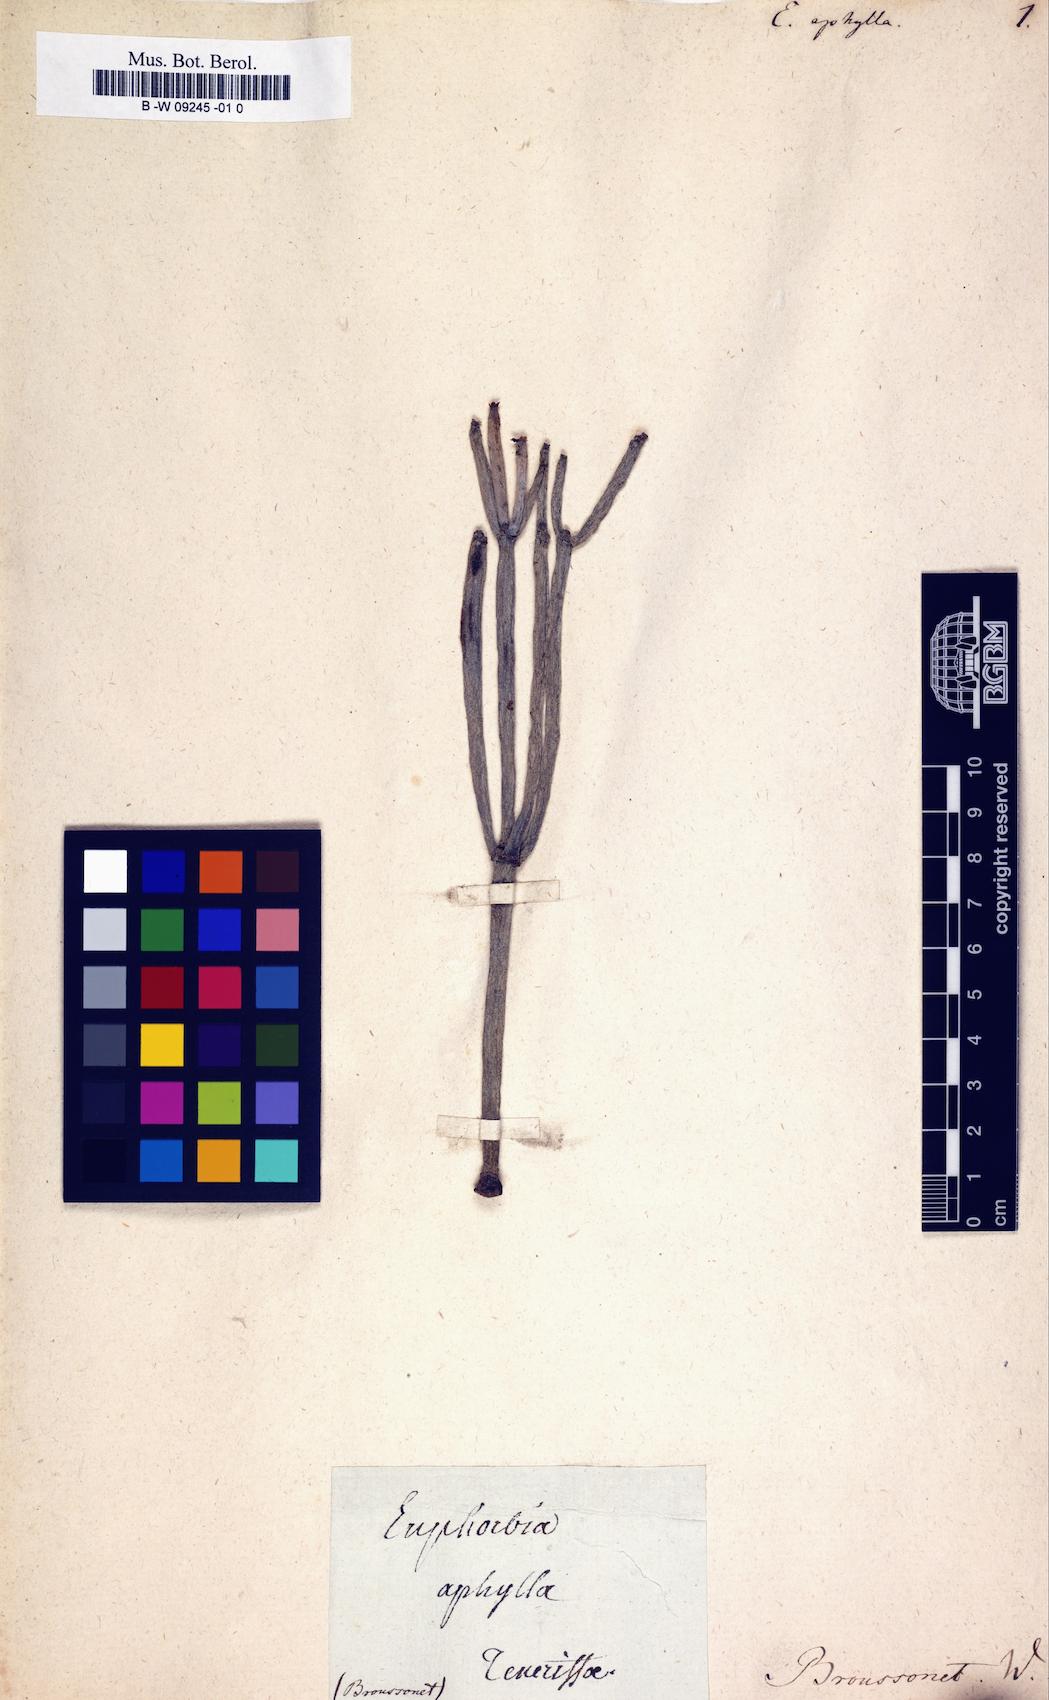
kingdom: Plantae
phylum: Tracheophyta
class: Magnoliopsida
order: Malpighiales
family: Euphorbiaceae
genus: Euphorbia
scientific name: Euphorbia aphylla
